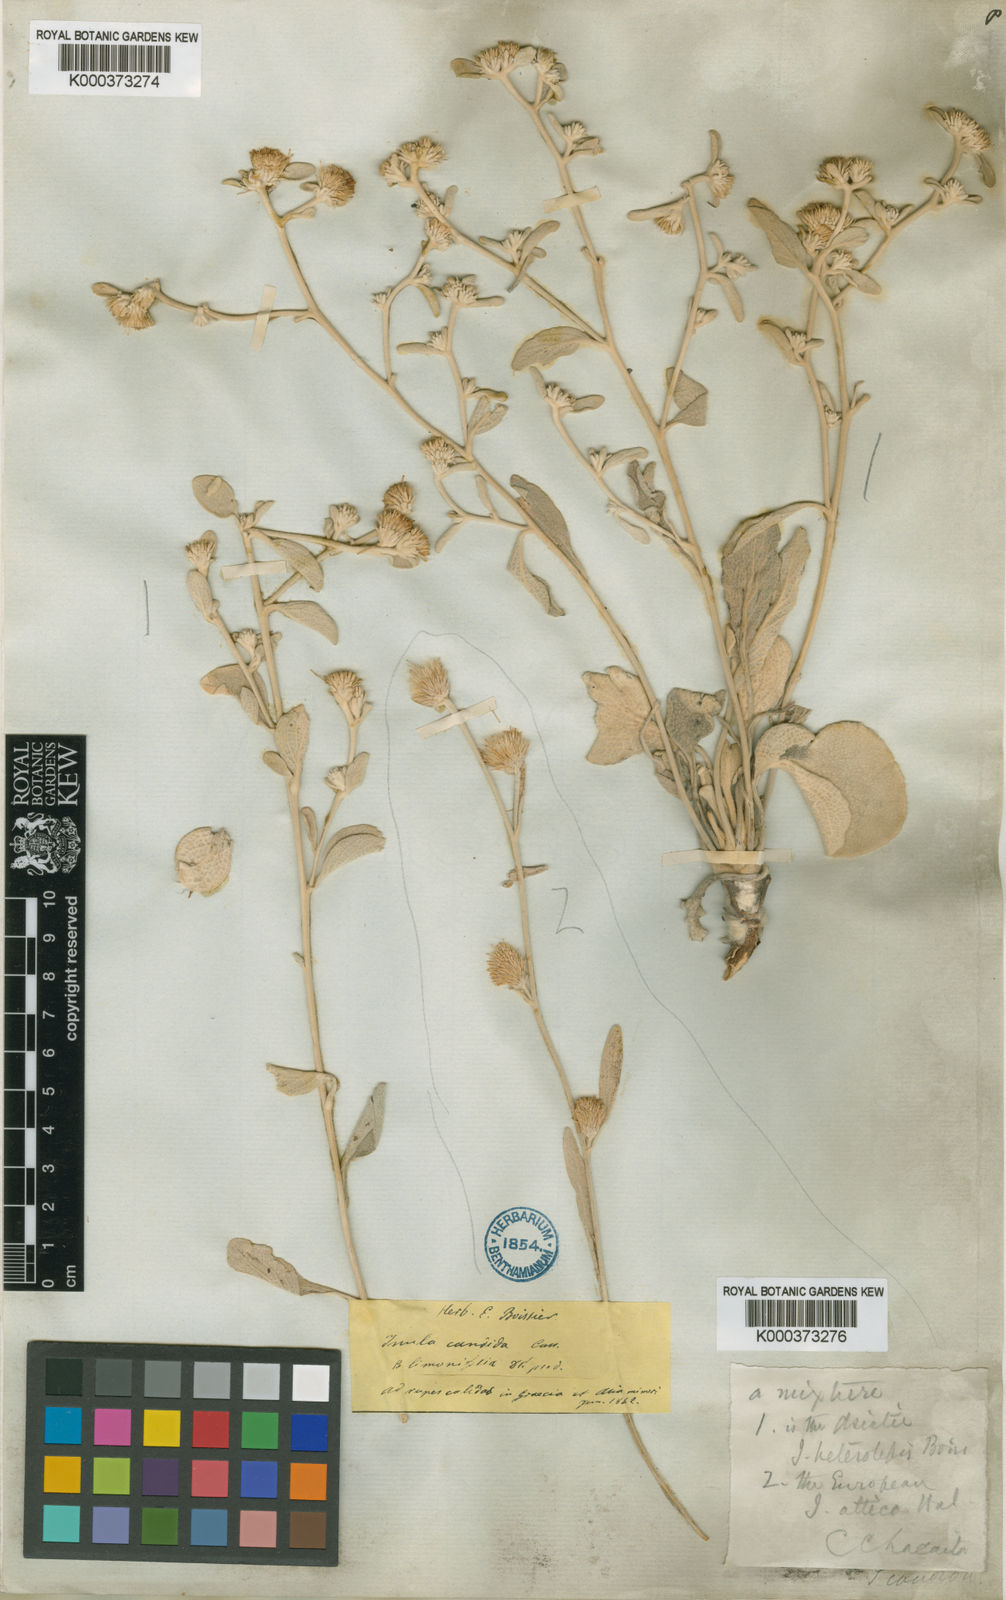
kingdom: Plantae
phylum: Tracheophyta
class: Magnoliopsida
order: Asterales
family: Asteraceae
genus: Pentanema
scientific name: Pentanema verbascifolium
